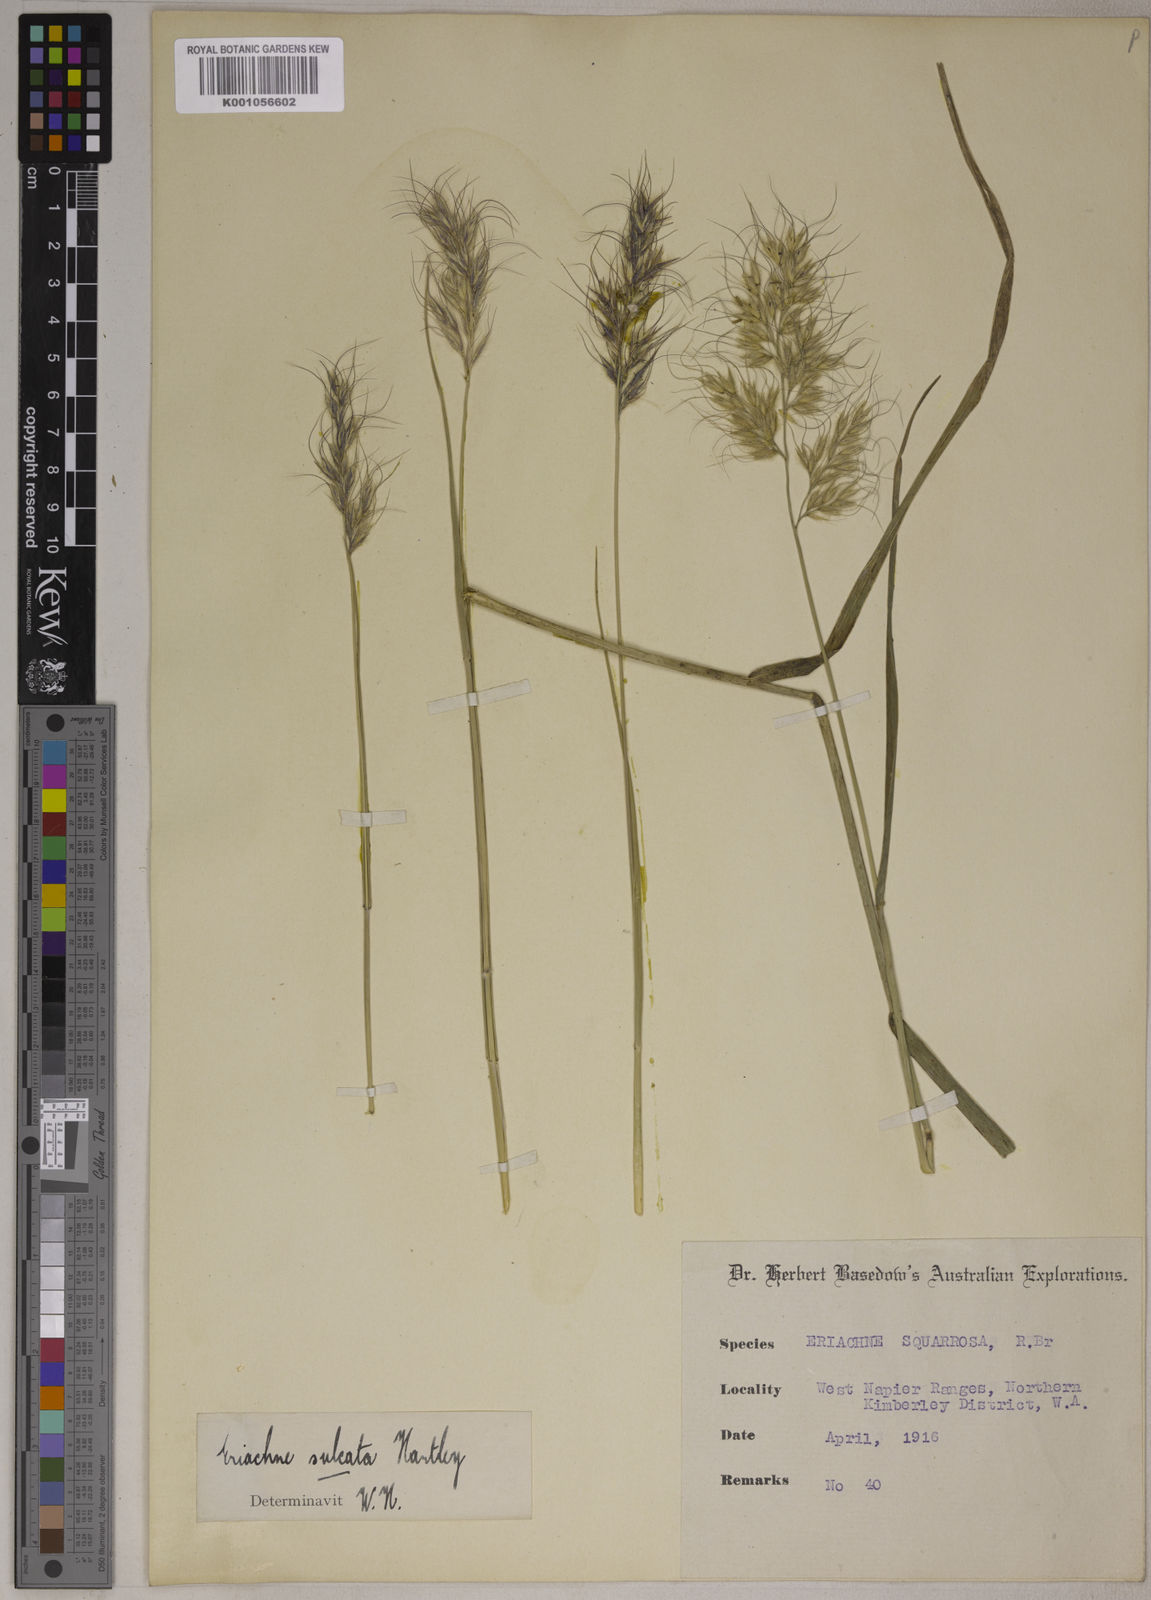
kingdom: Plantae
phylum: Tracheophyta
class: Liliopsida
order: Poales
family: Poaceae
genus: Eriachne
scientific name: Eriachne sulcata
